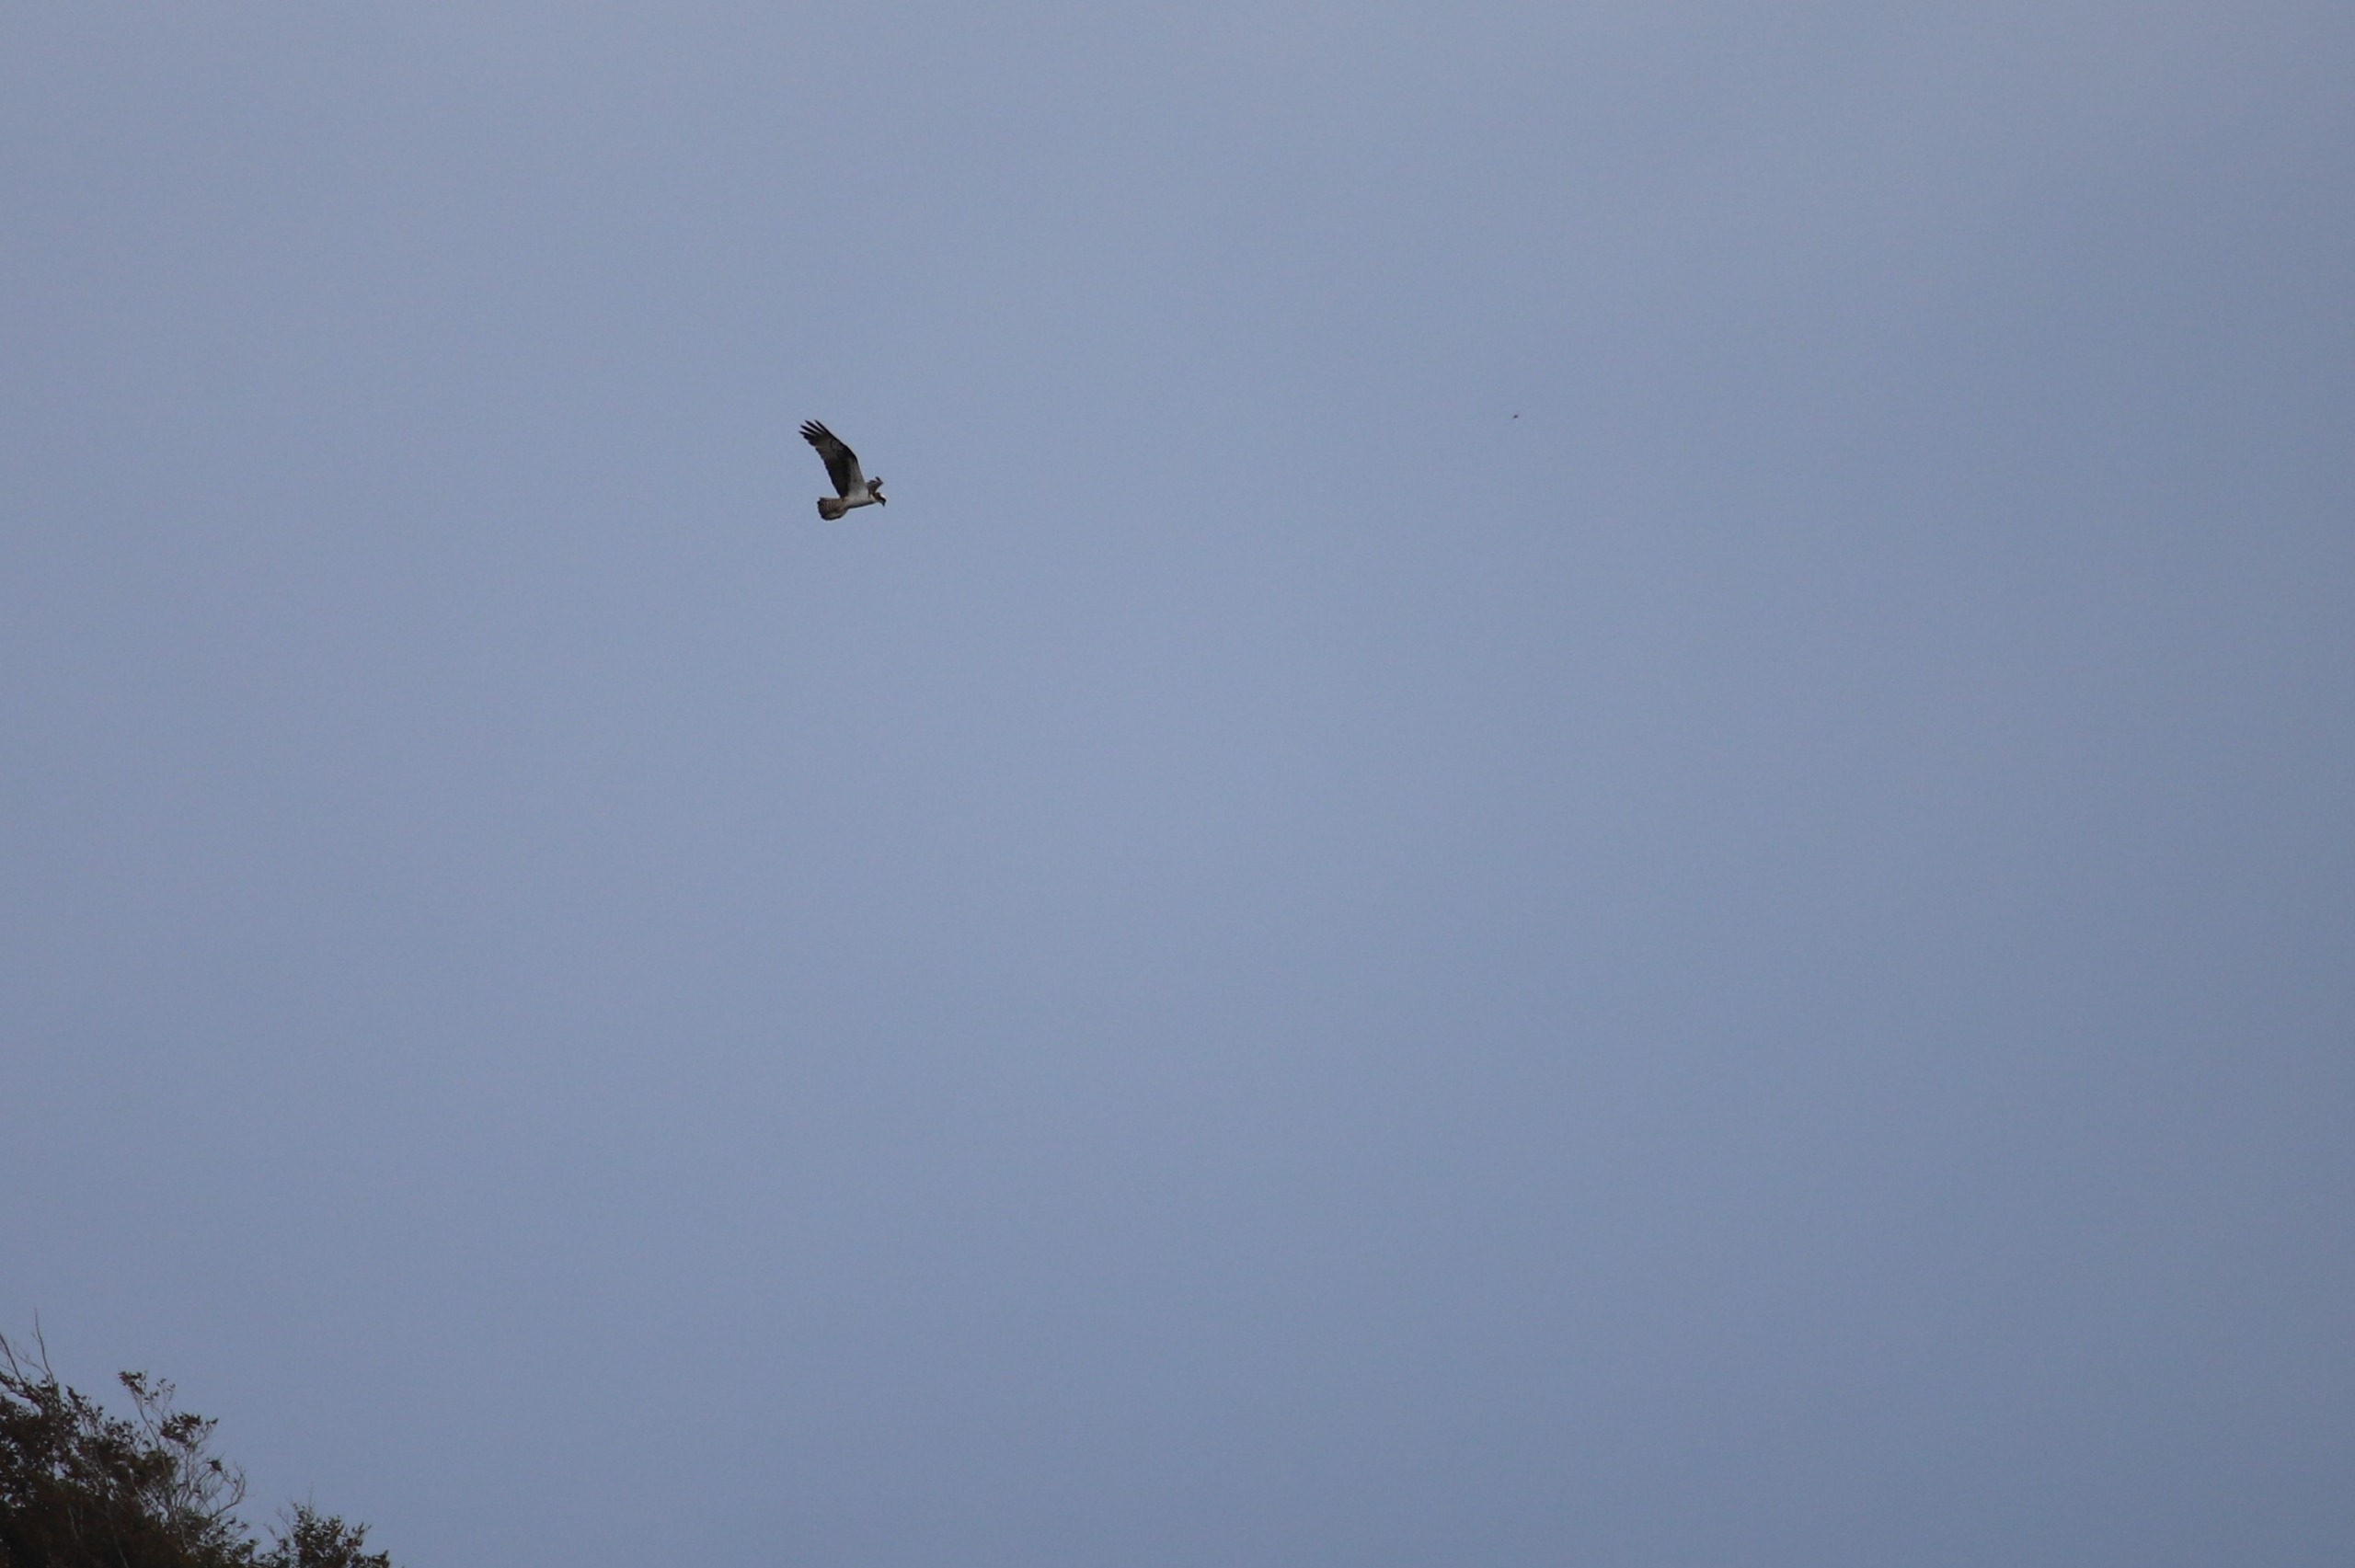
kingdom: Animalia
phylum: Chordata
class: Aves
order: Accipitriformes
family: Pandionidae
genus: Pandion
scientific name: Pandion haliaetus
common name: Fiskeørn
